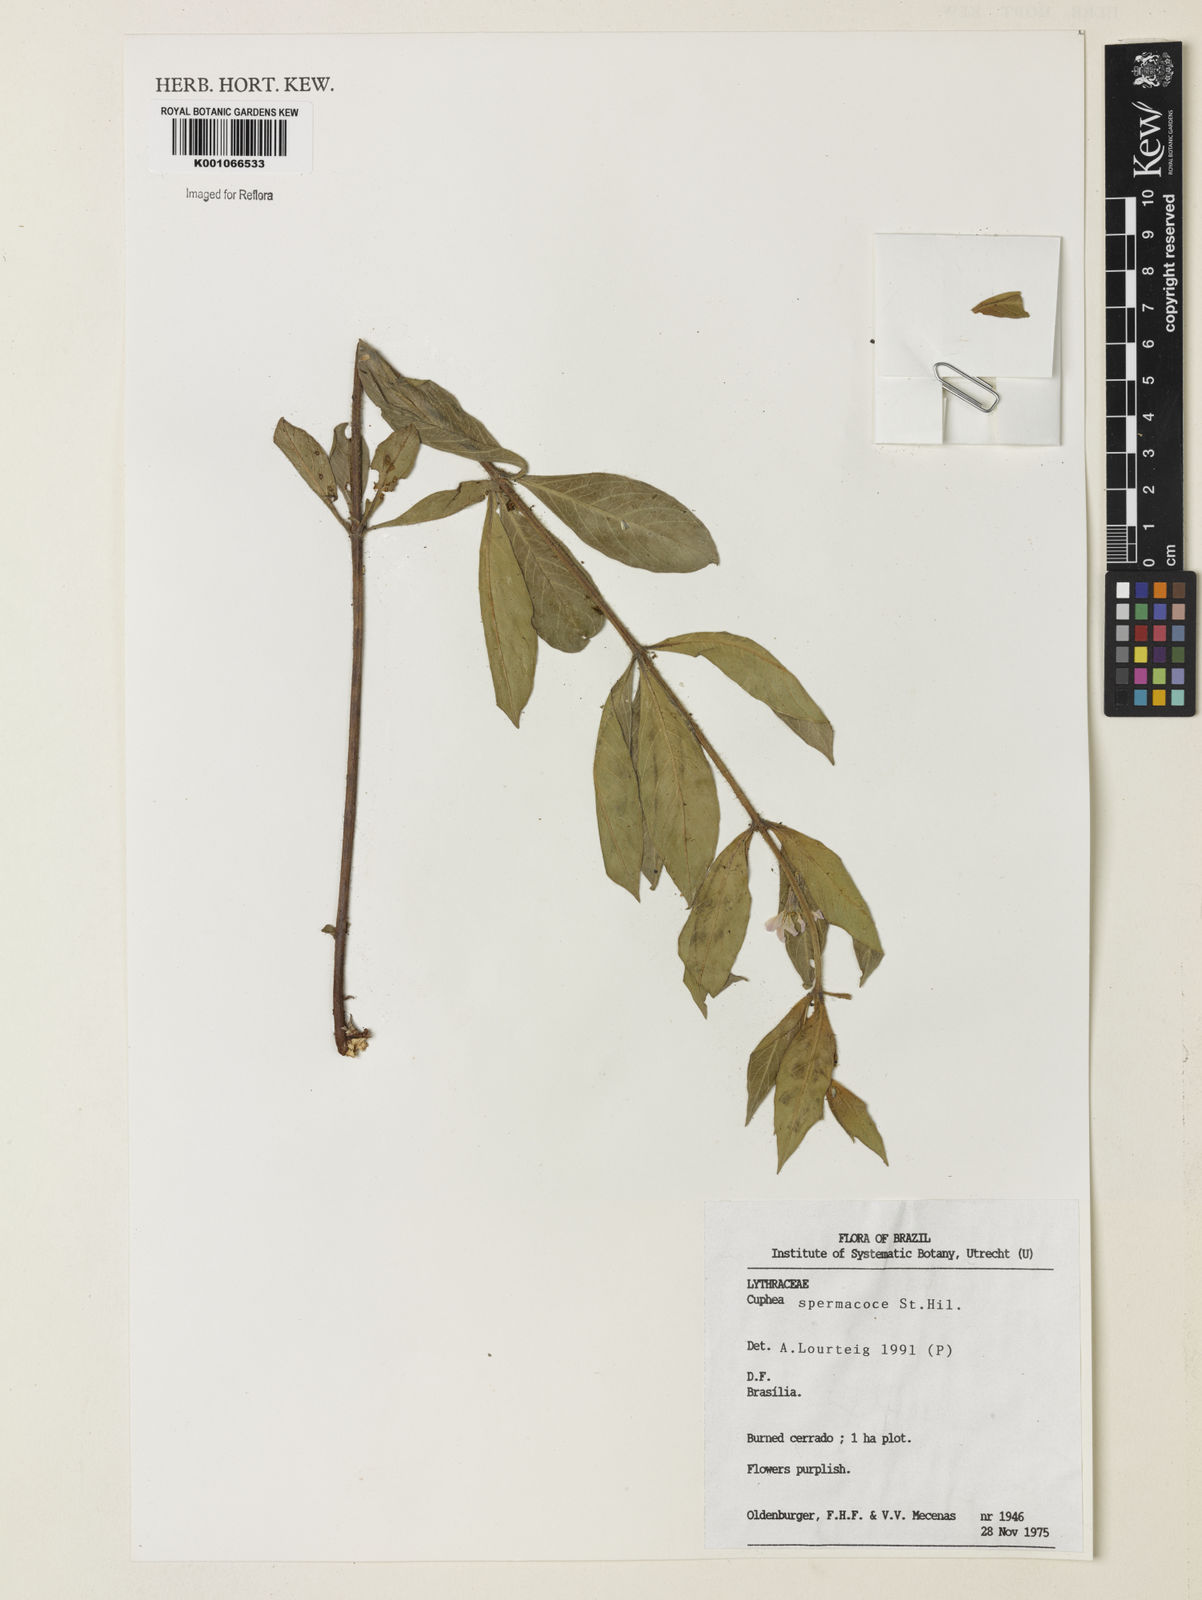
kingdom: Plantae
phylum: Tracheophyta
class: Magnoliopsida
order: Myrtales
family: Lythraceae
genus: Cuphea
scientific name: Cuphea spermacoce
